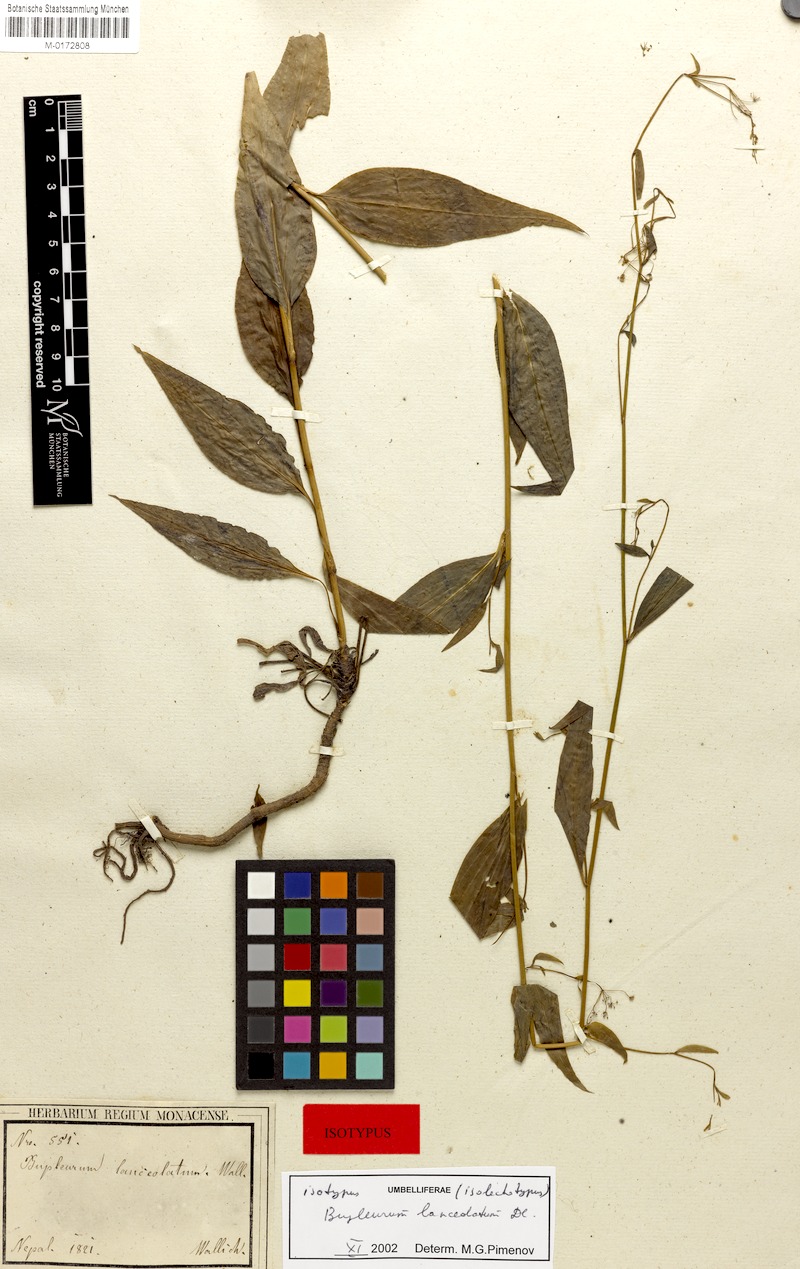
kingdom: Plantae
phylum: Tracheophyta
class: Magnoliopsida
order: Apiales
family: Apiaceae
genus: Bupleurum
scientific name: Bupleurum lanceolatum
